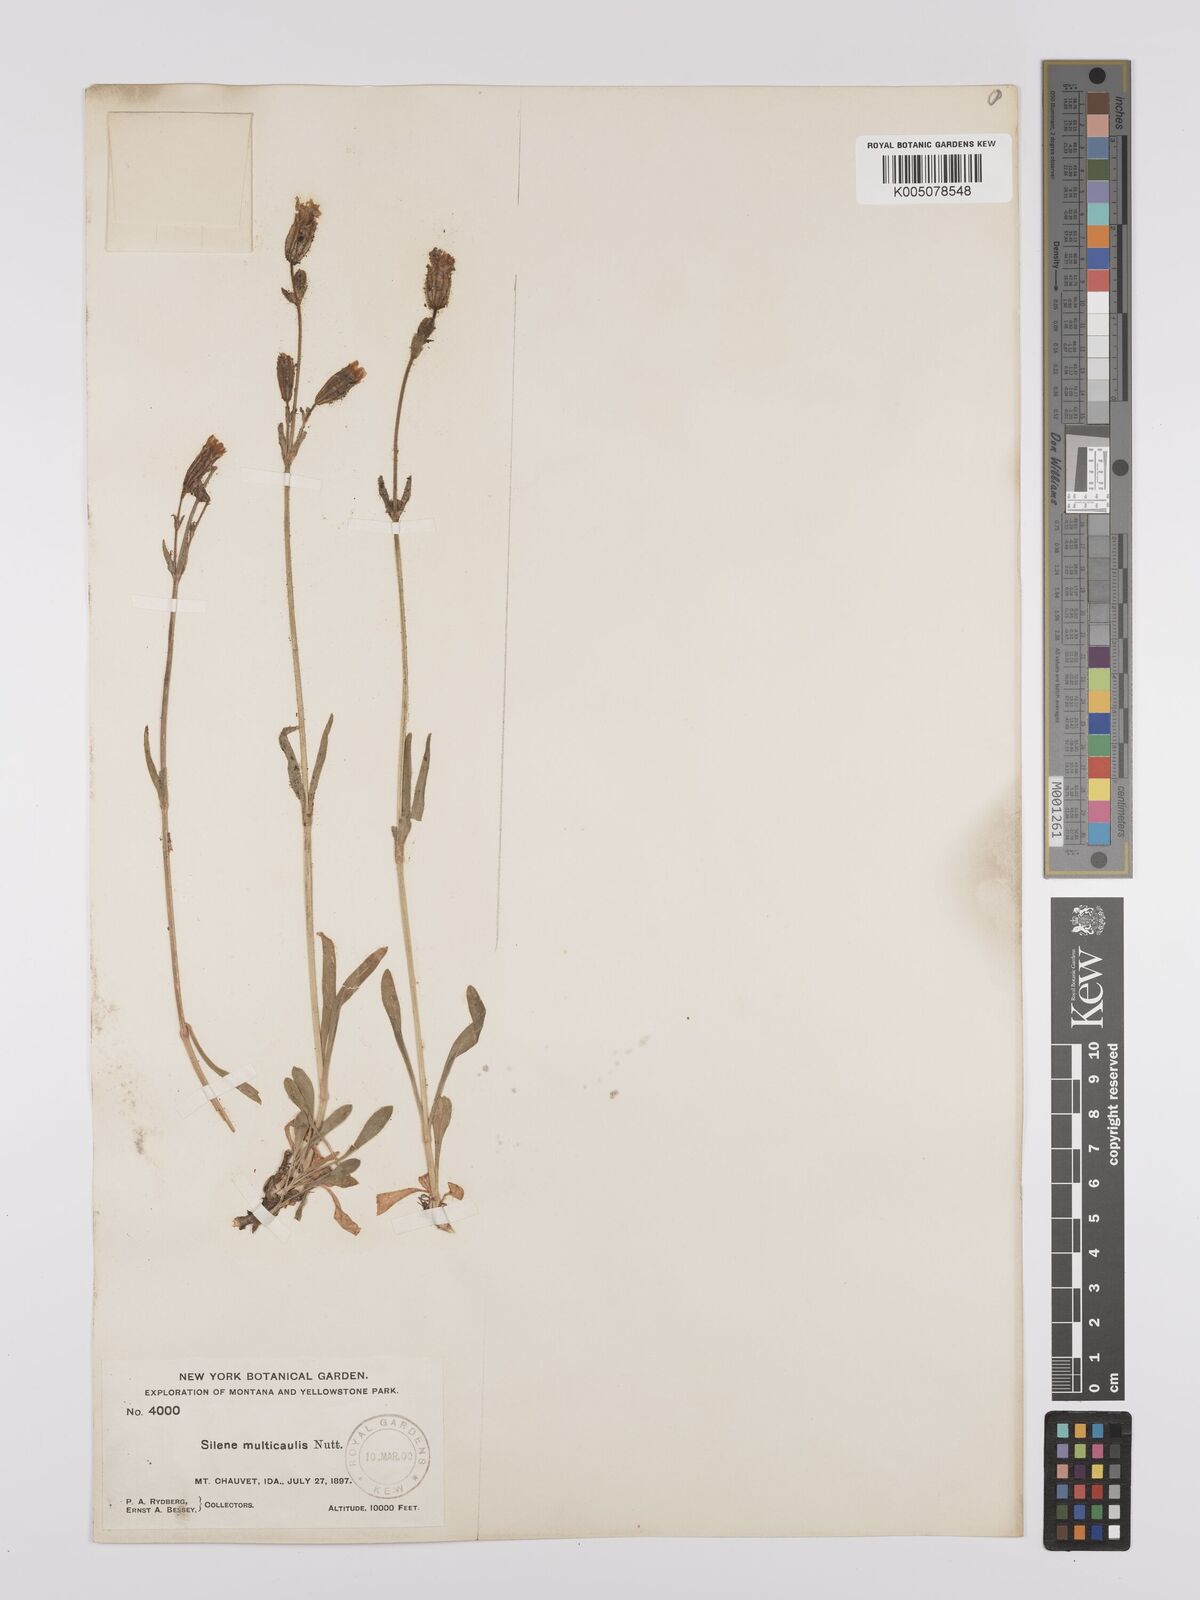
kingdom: Plantae
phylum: Tracheophyta
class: Magnoliopsida
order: Caryophyllales
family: Caryophyllaceae
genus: Silene
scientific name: Silene parryi
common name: Parry's campion
